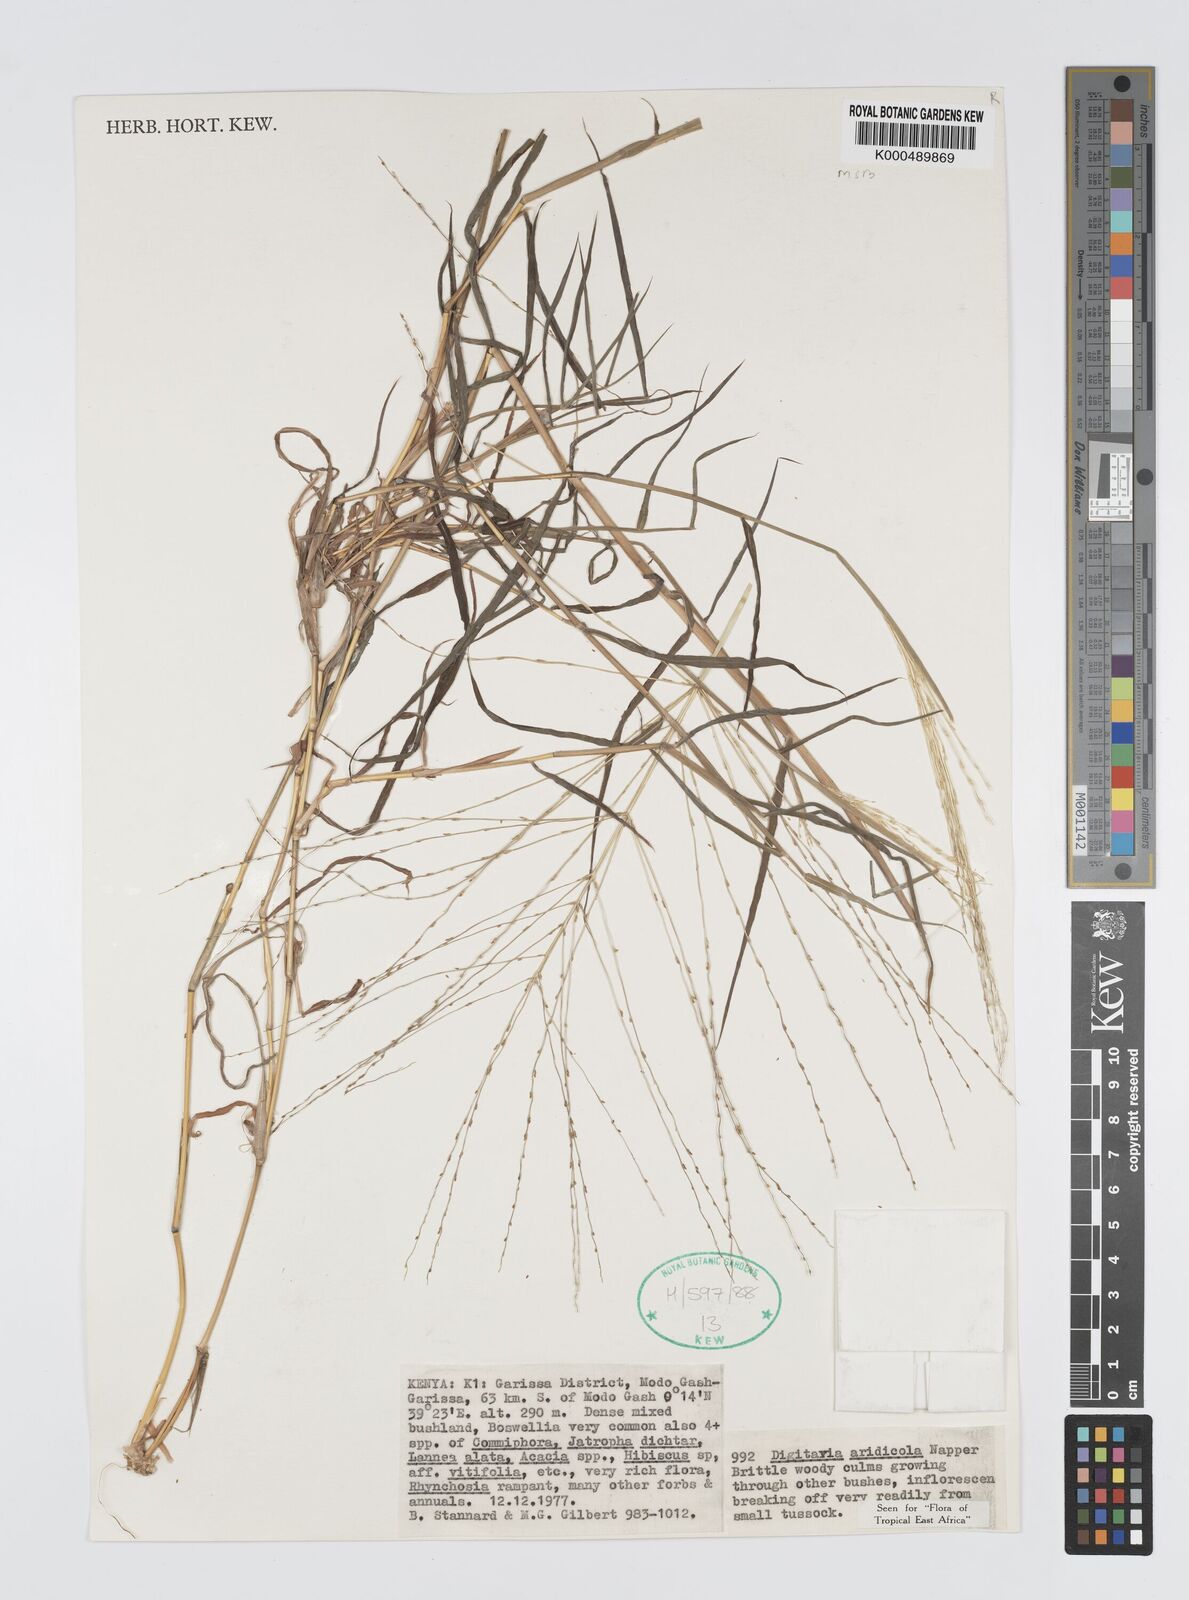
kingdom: Plantae
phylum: Tracheophyta
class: Liliopsida
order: Poales
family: Poaceae
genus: Digitaria
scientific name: Digitaria aridicola
